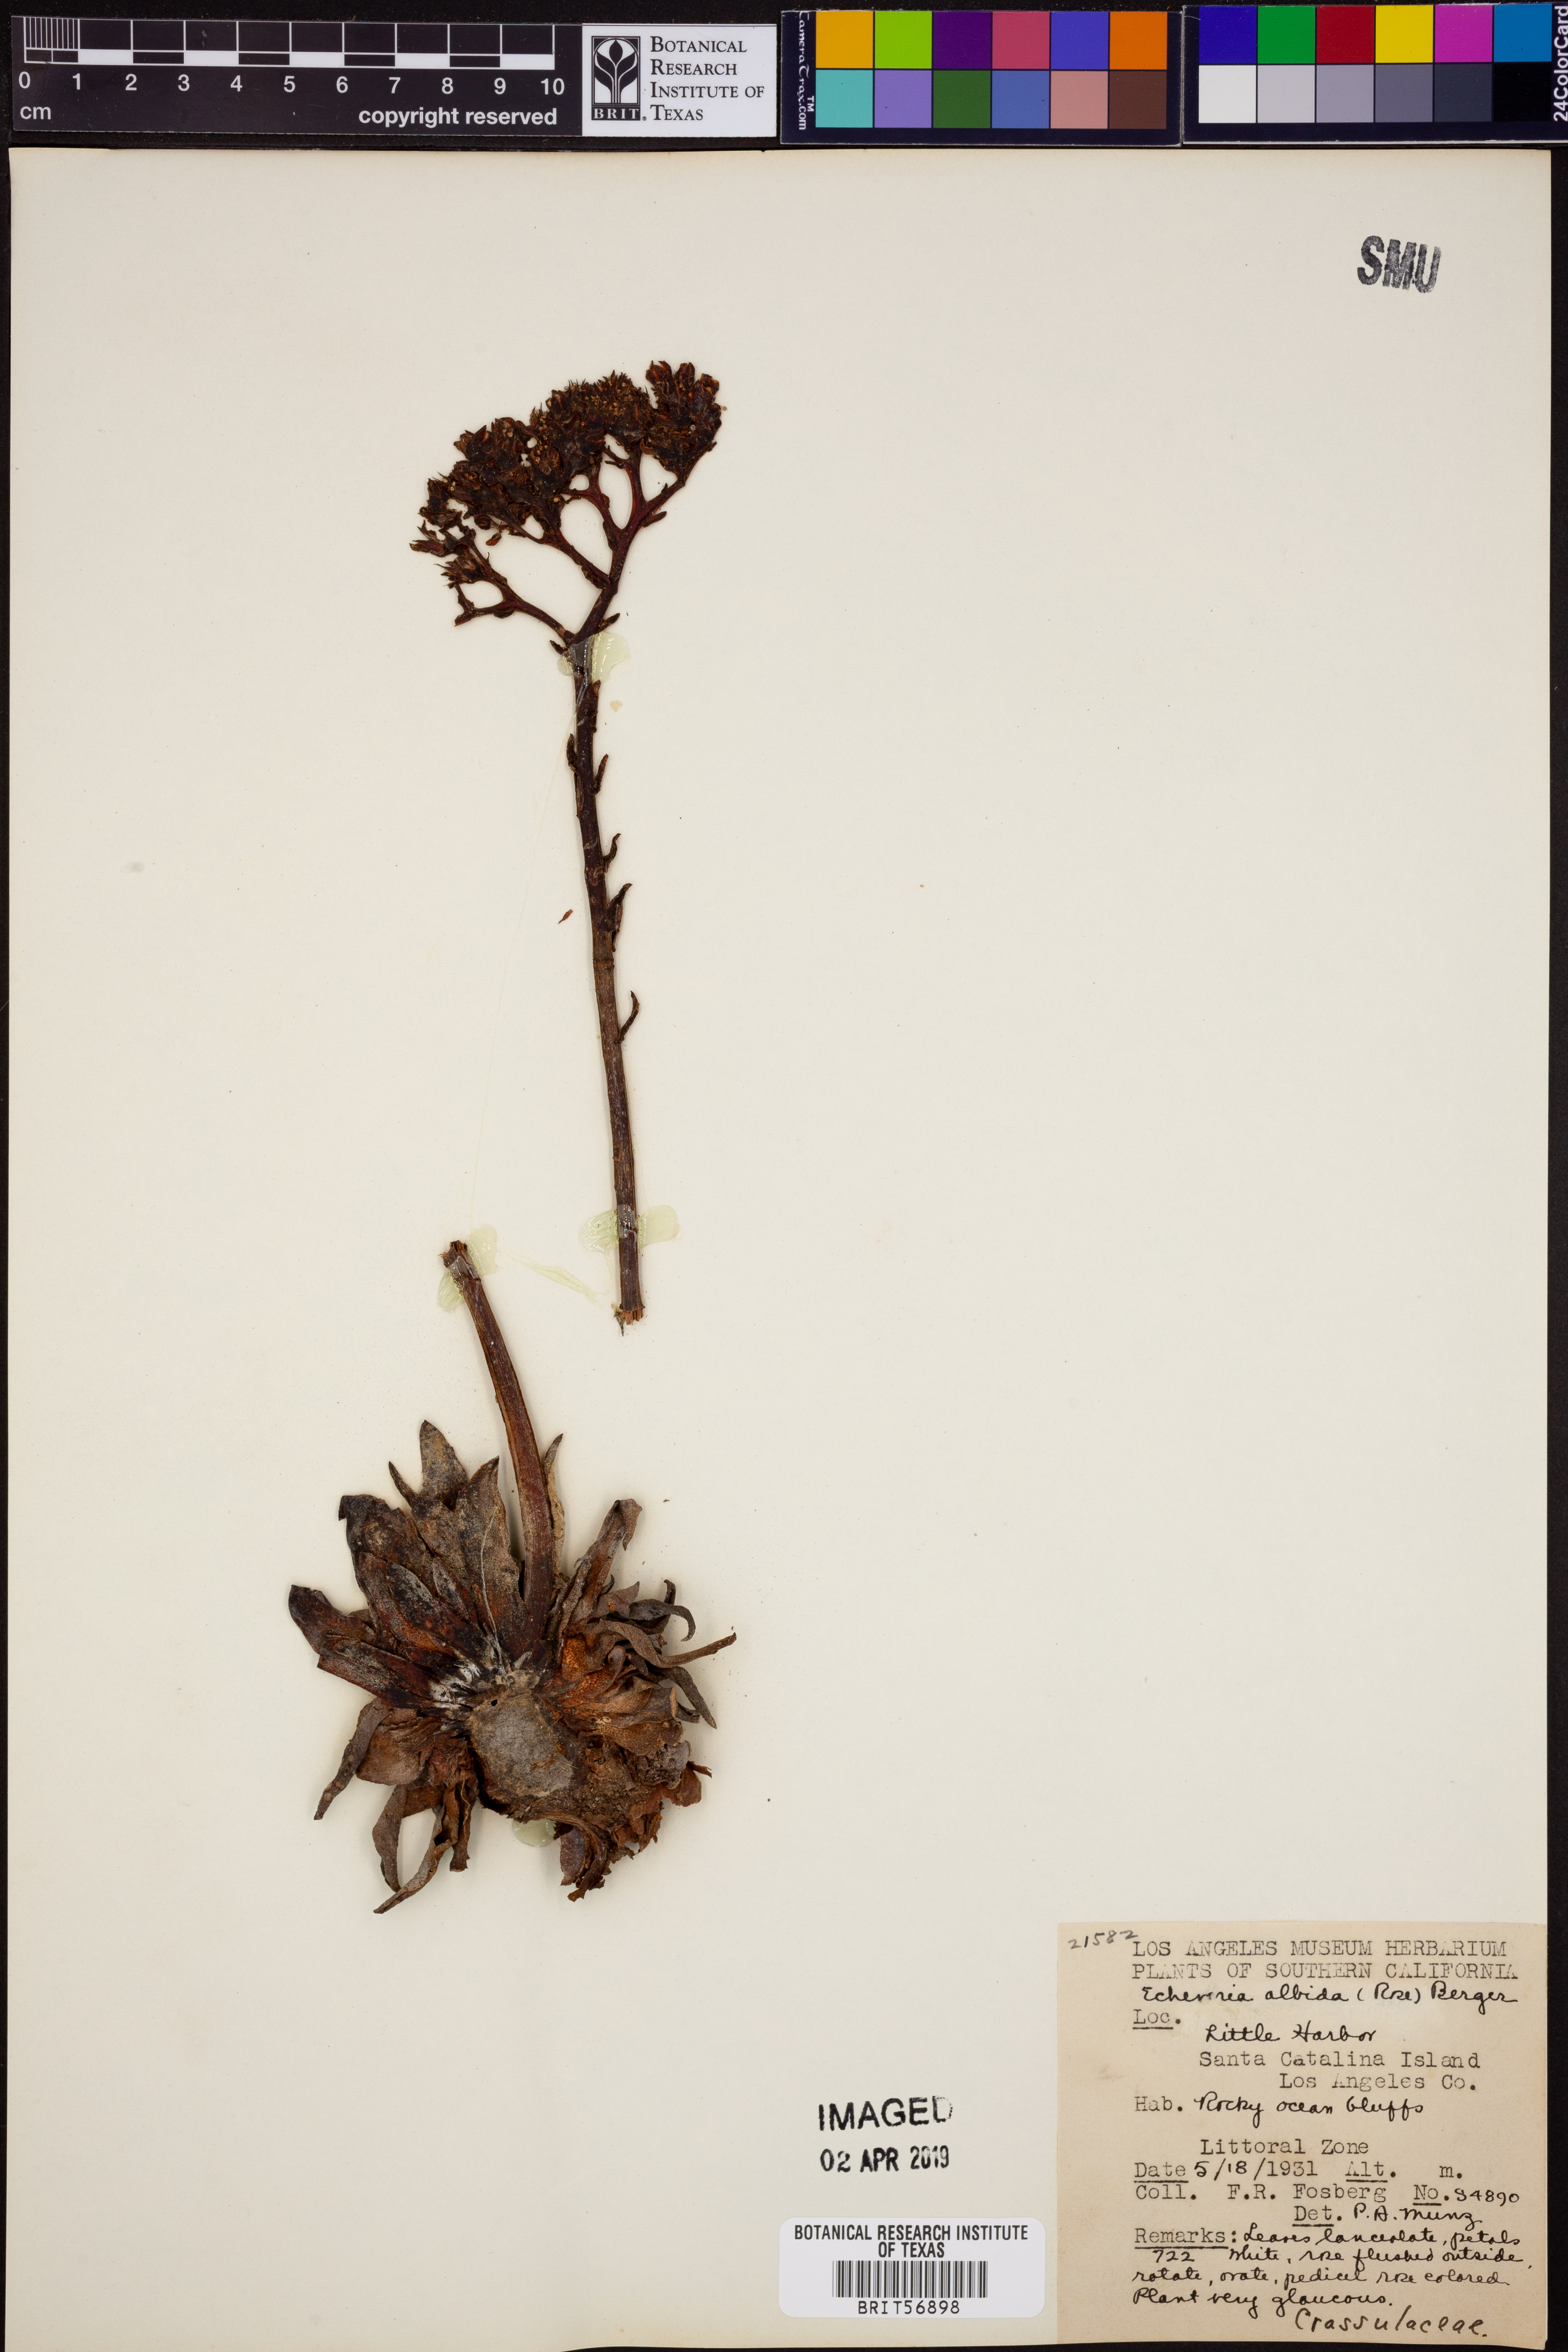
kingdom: Plantae
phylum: Tracheophyta
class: Magnoliopsida
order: Saxifragales
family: Crassulaceae
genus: Dudleya
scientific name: Dudleya virens
